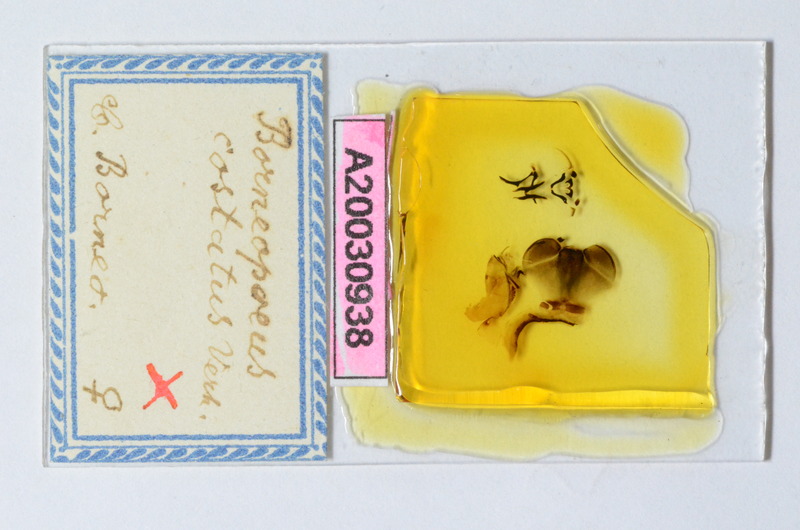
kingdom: Animalia
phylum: Arthropoda
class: Diplopoda
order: Sphaerotheriida
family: Zephroniidae
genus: Castanotherium
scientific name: Castanotherium costatum
